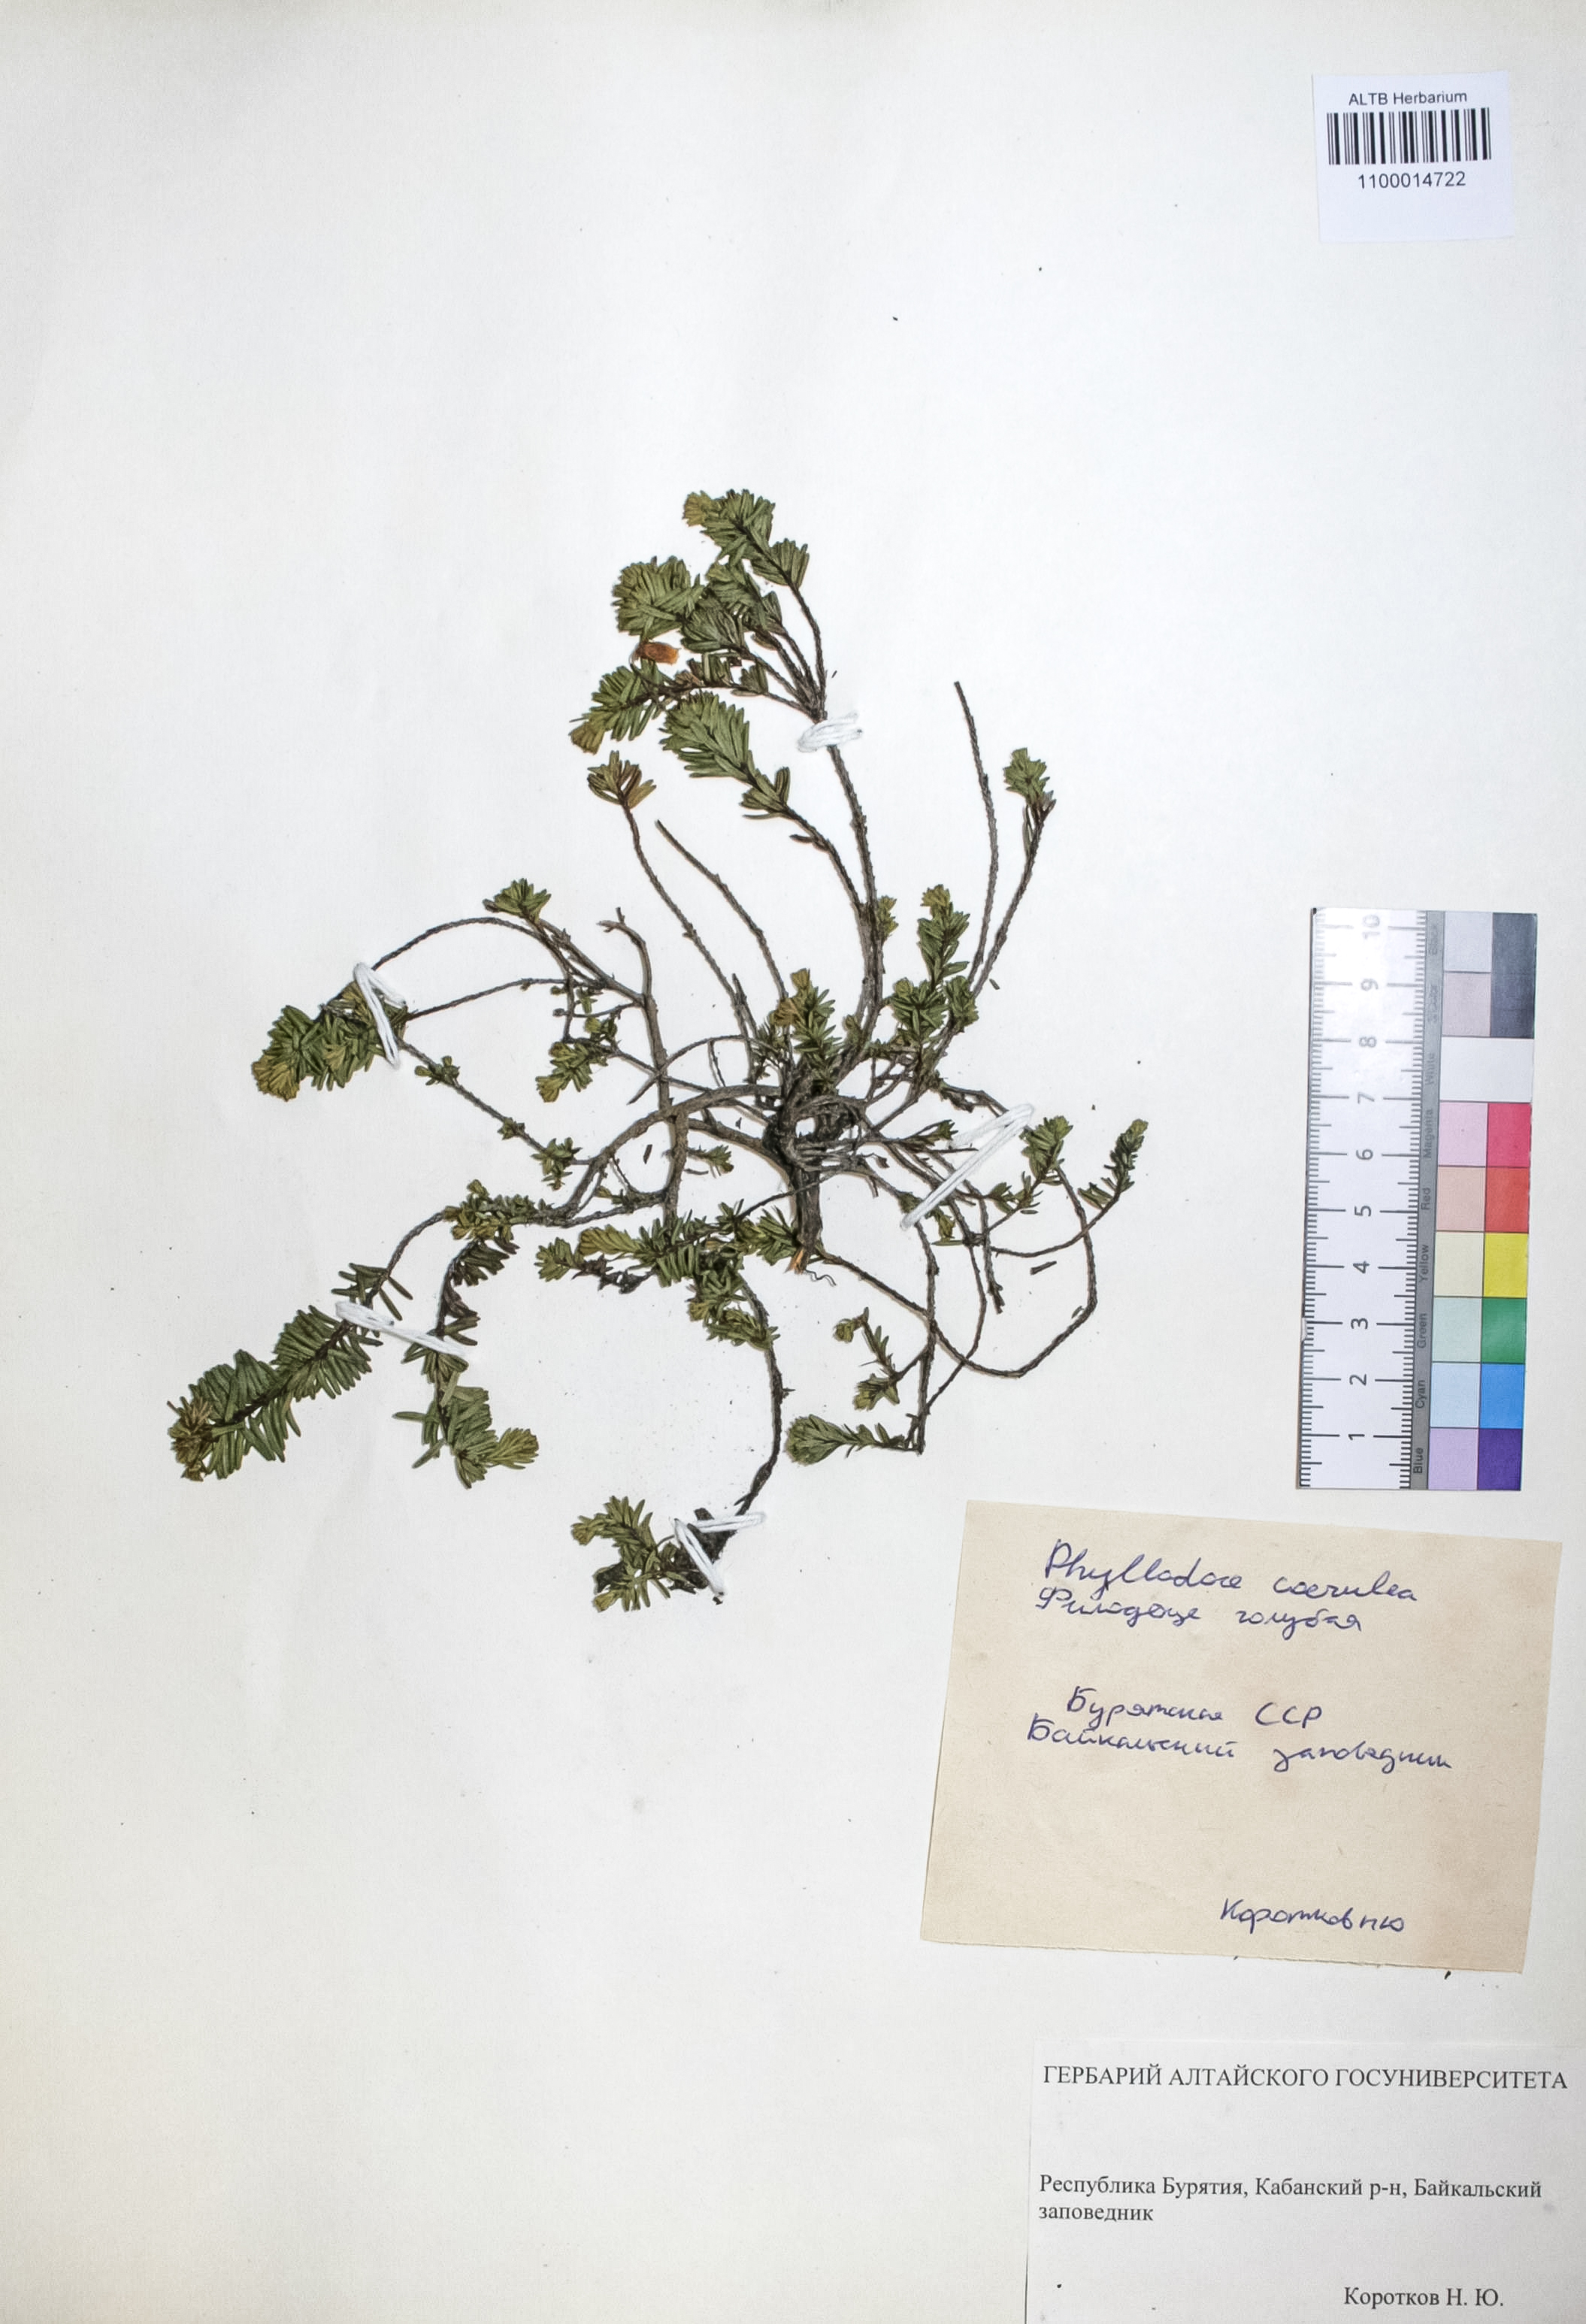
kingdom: Plantae
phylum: Tracheophyta
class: Magnoliopsida
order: Ericales
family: Ericaceae
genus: Phyllodoce
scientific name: Phyllodoce caerulea
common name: Blue heath
